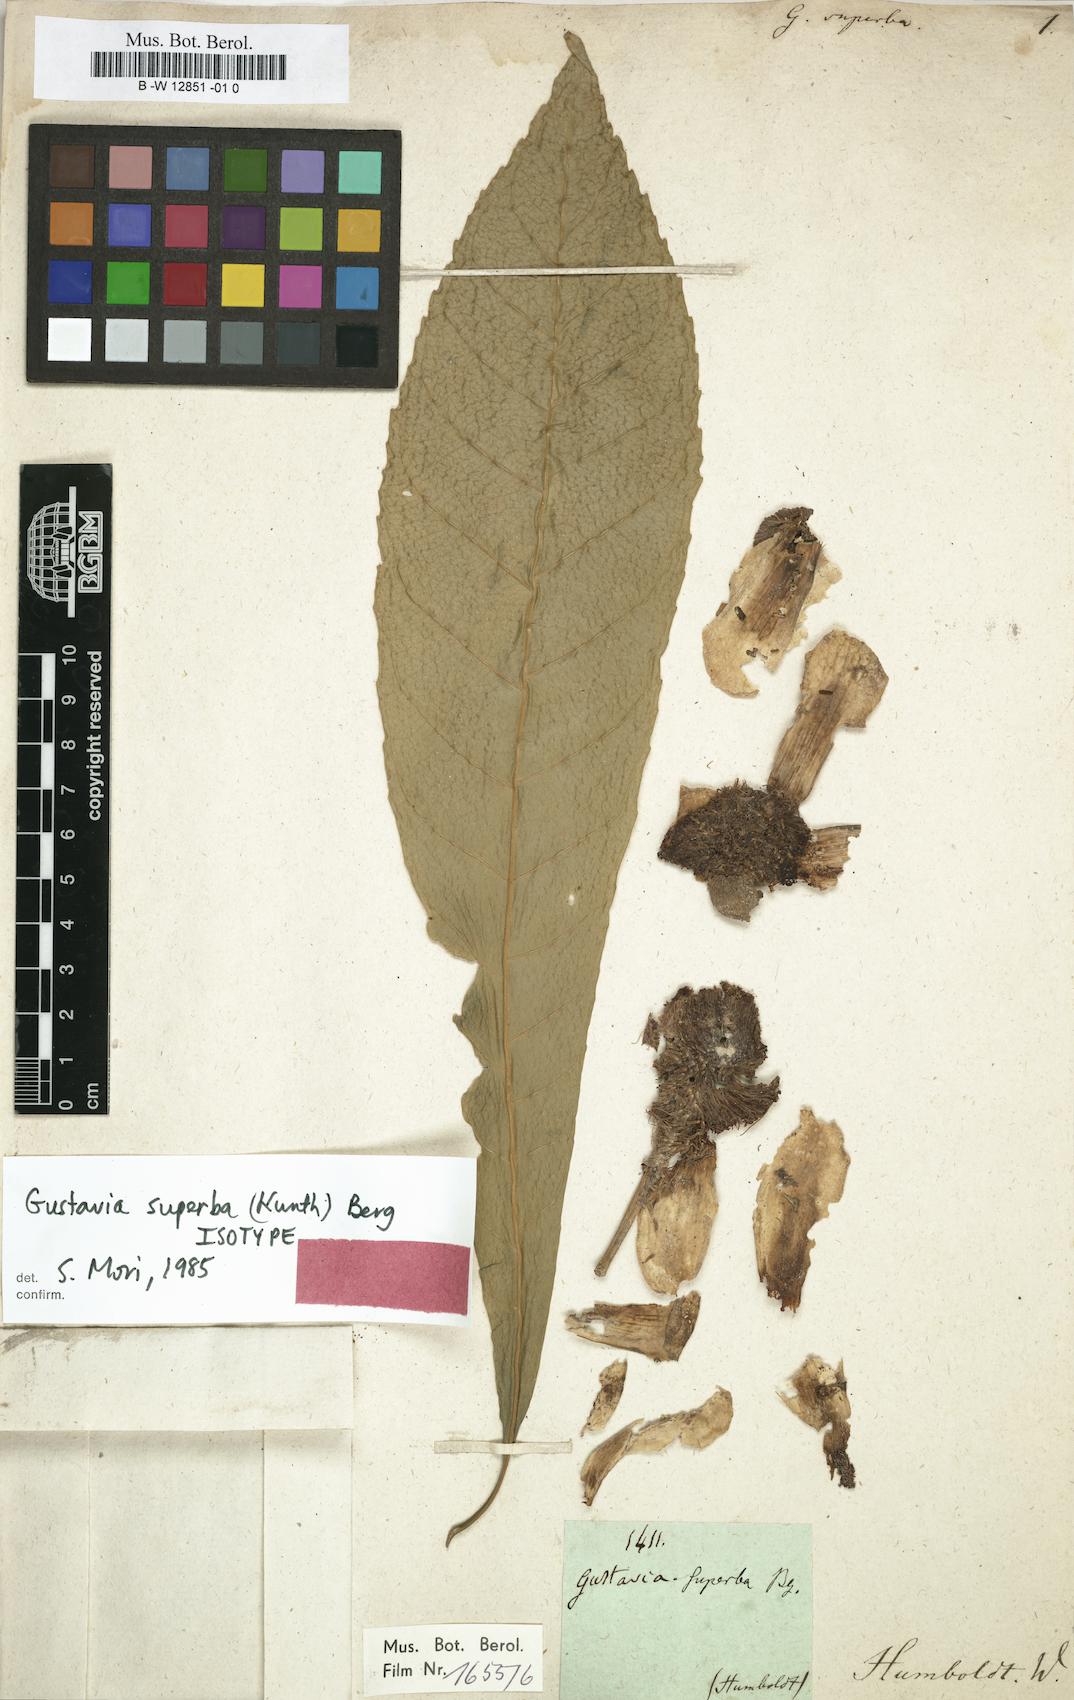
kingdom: Plantae
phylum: Tracheophyta
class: Magnoliopsida
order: Ericales
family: Lecythidaceae
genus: Gustavia
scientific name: Gustavia superba
